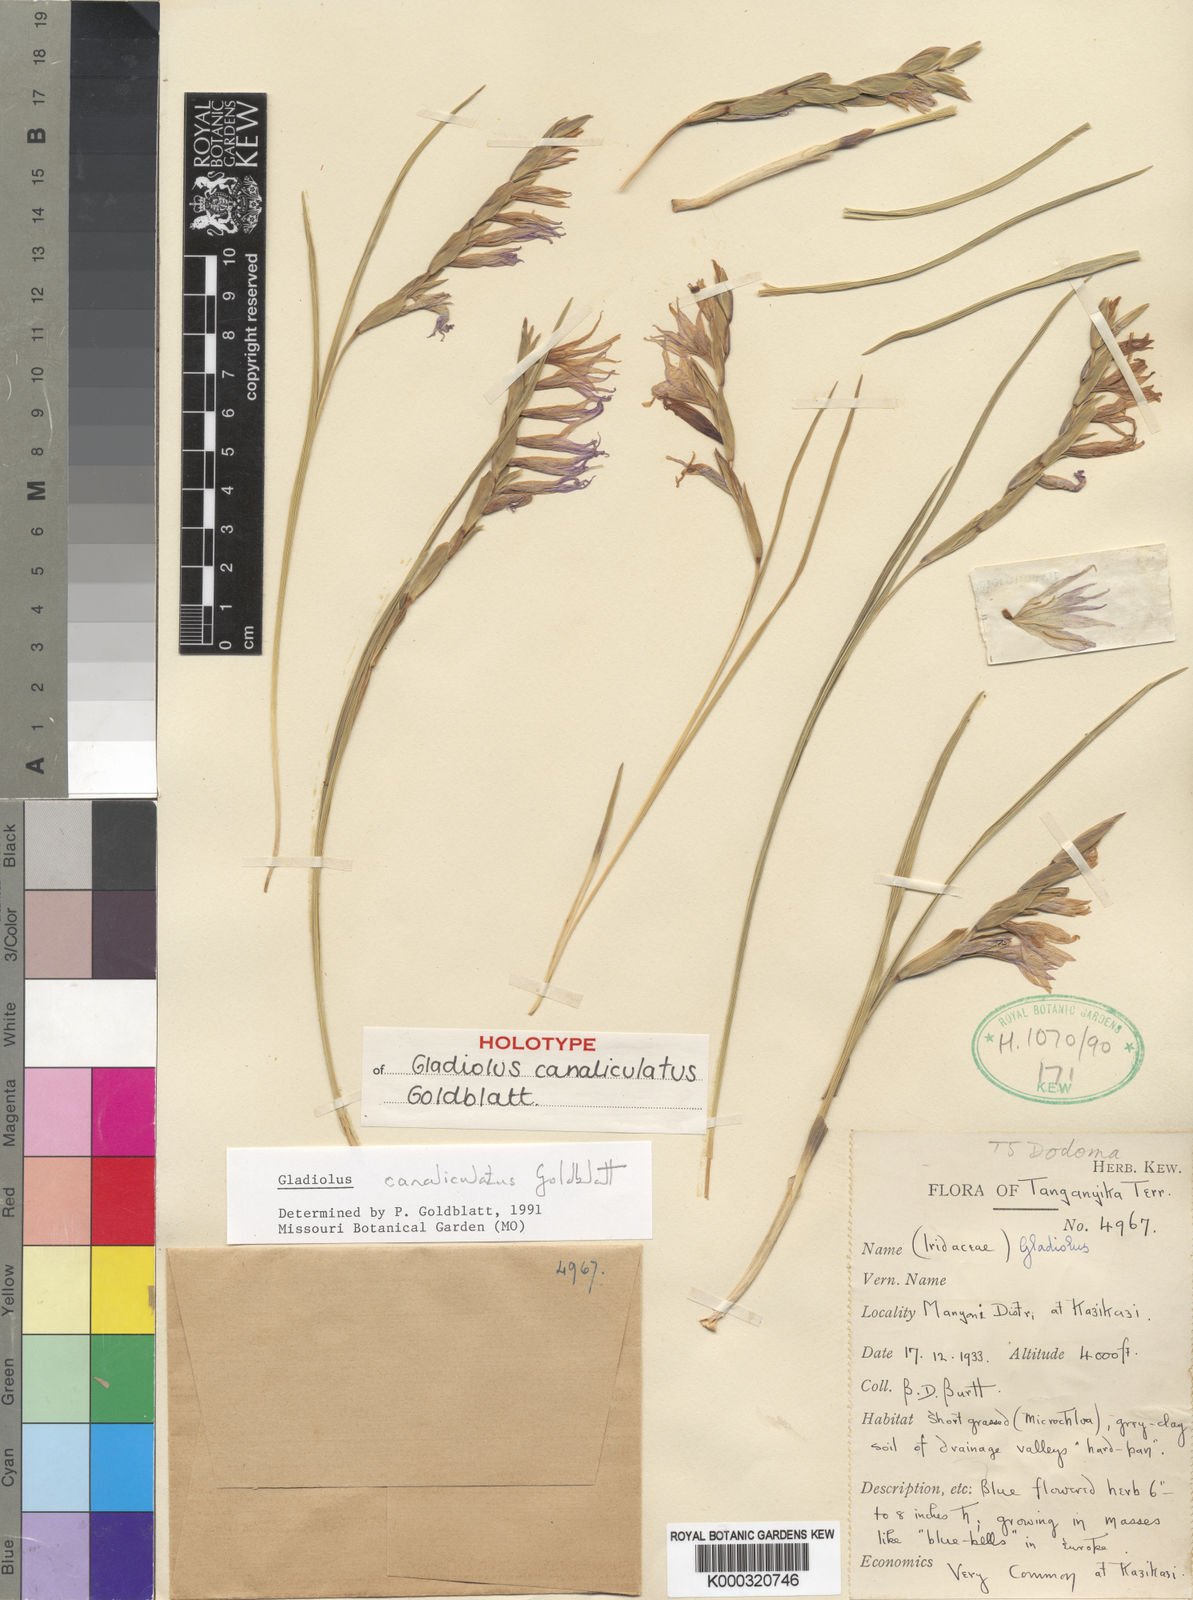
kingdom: Plantae
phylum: Tracheophyta
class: Liliopsida
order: Asparagales
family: Iridaceae
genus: Gladiolus
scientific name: Gladiolus canaliculatus
